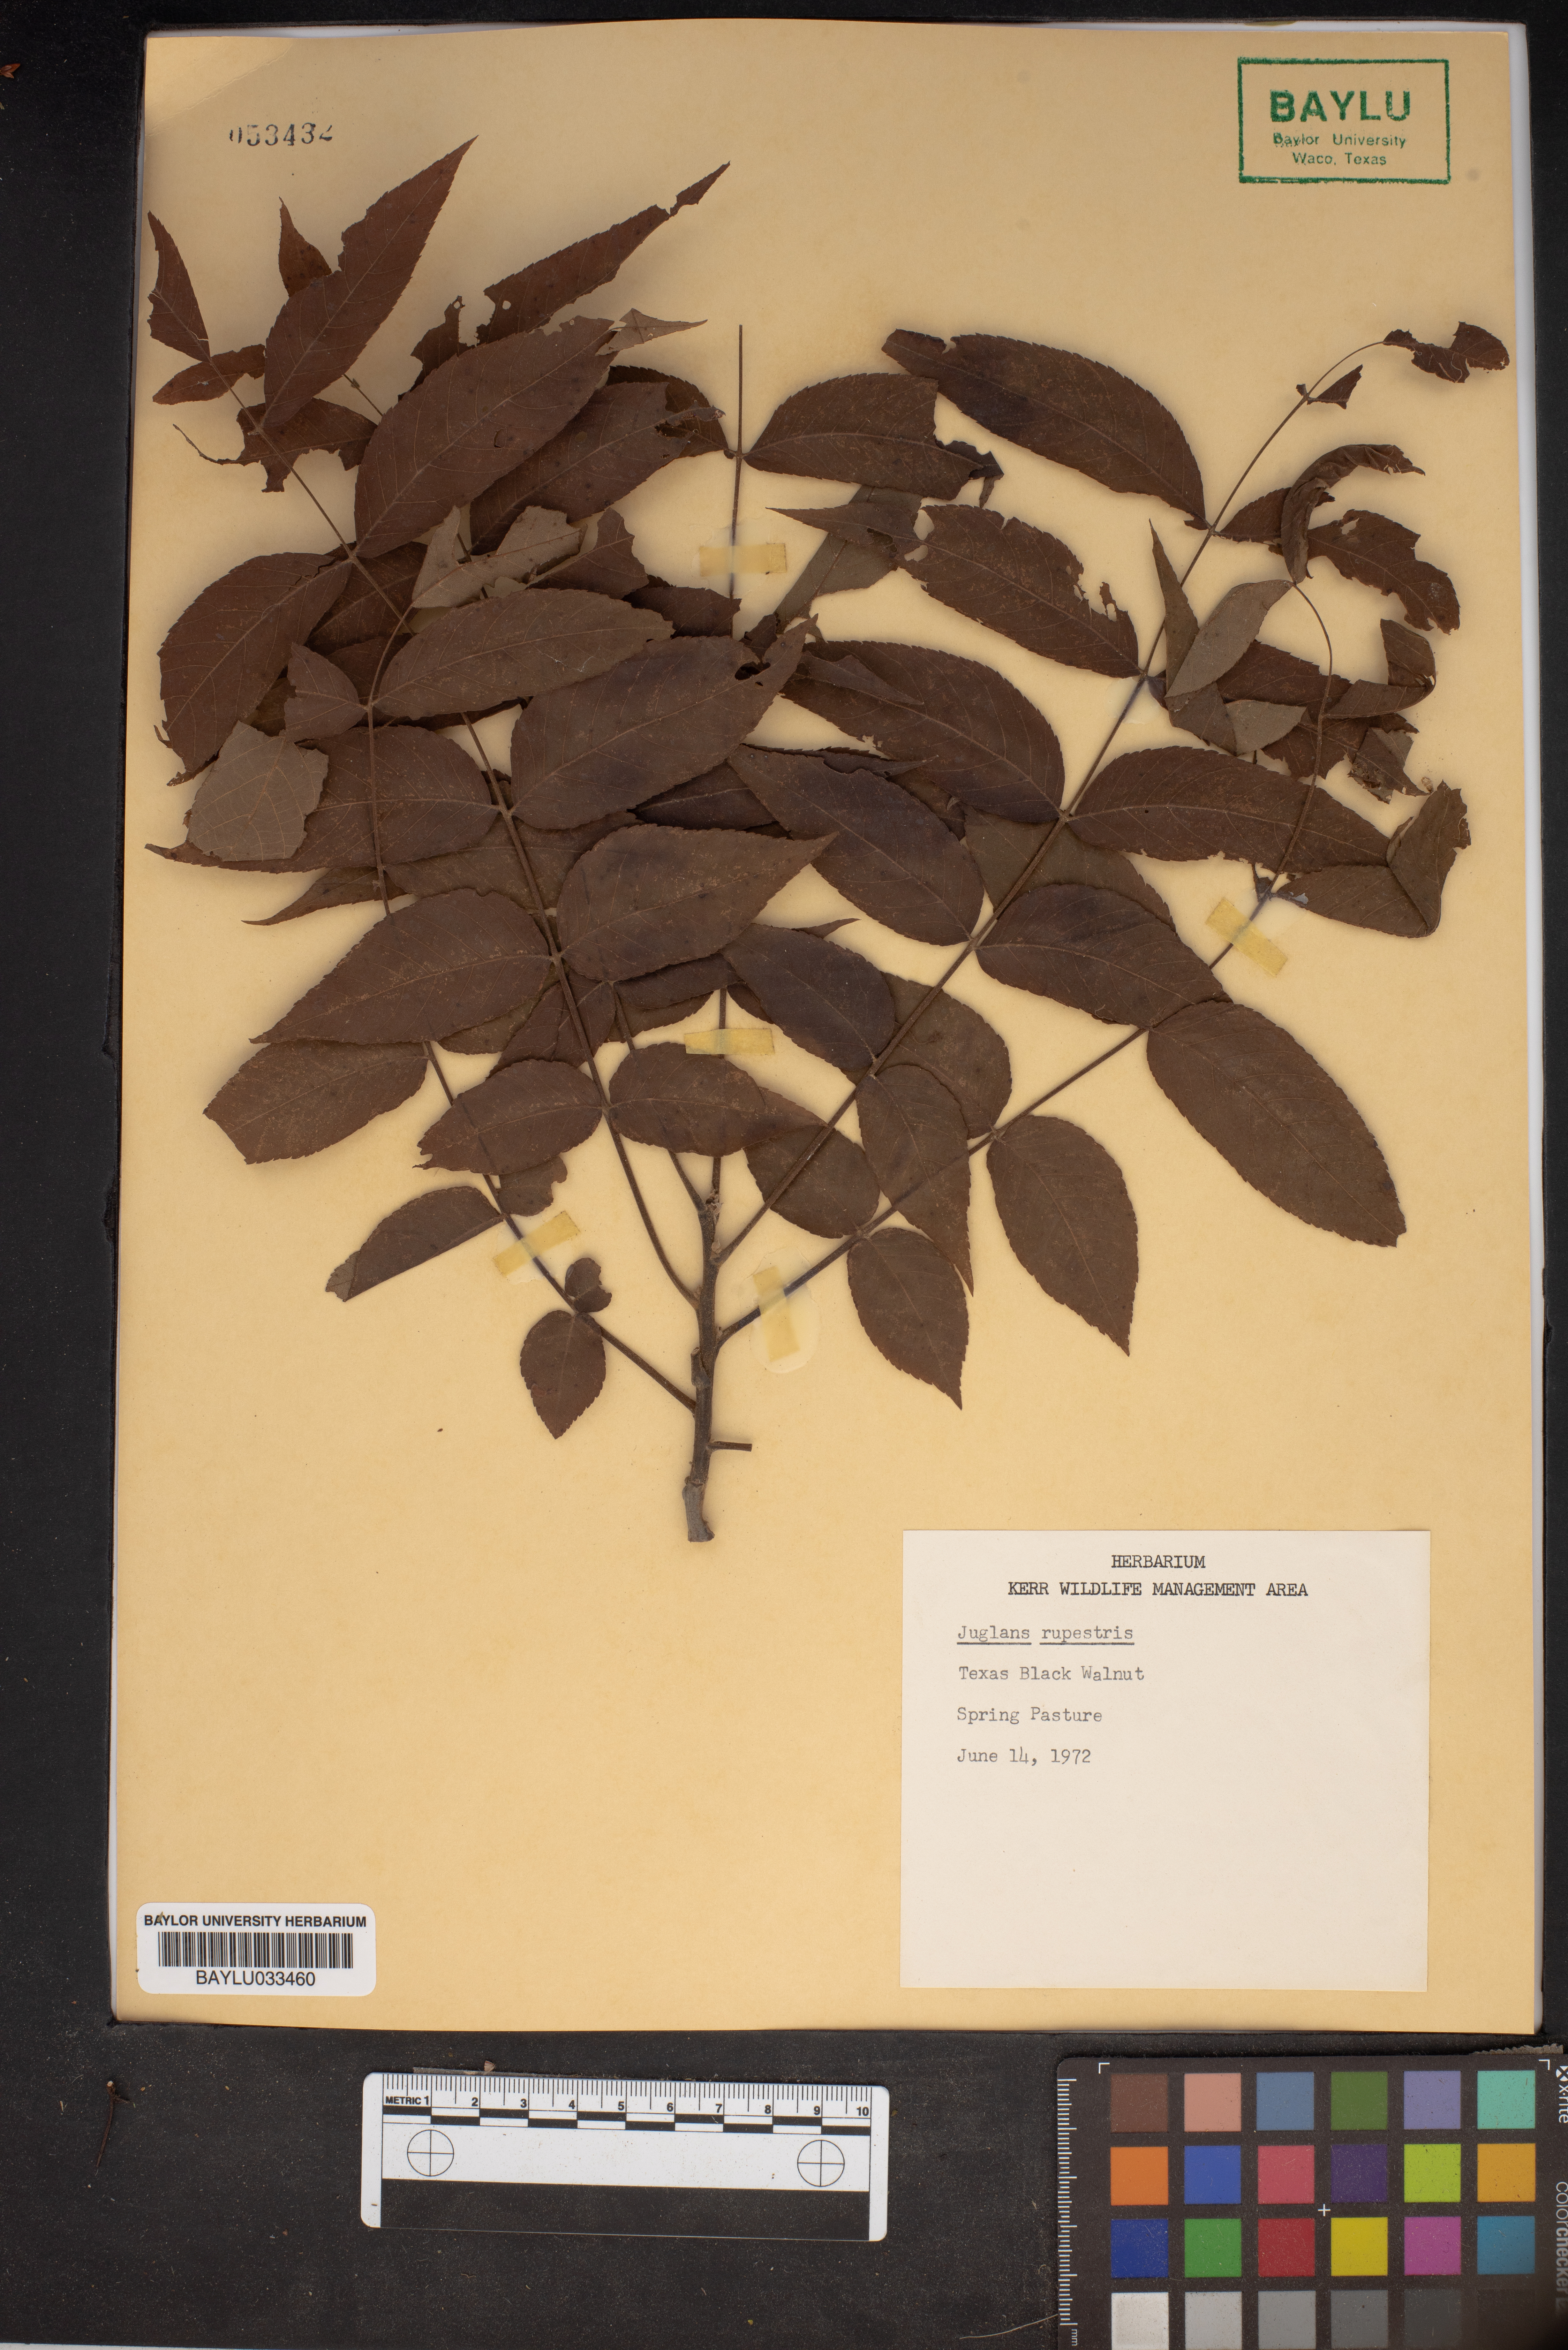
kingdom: Plantae
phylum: Tracheophyta
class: Magnoliopsida
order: Fagales
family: Juglandaceae
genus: Juglans
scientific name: Juglans microcarpa
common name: Texas walnut
